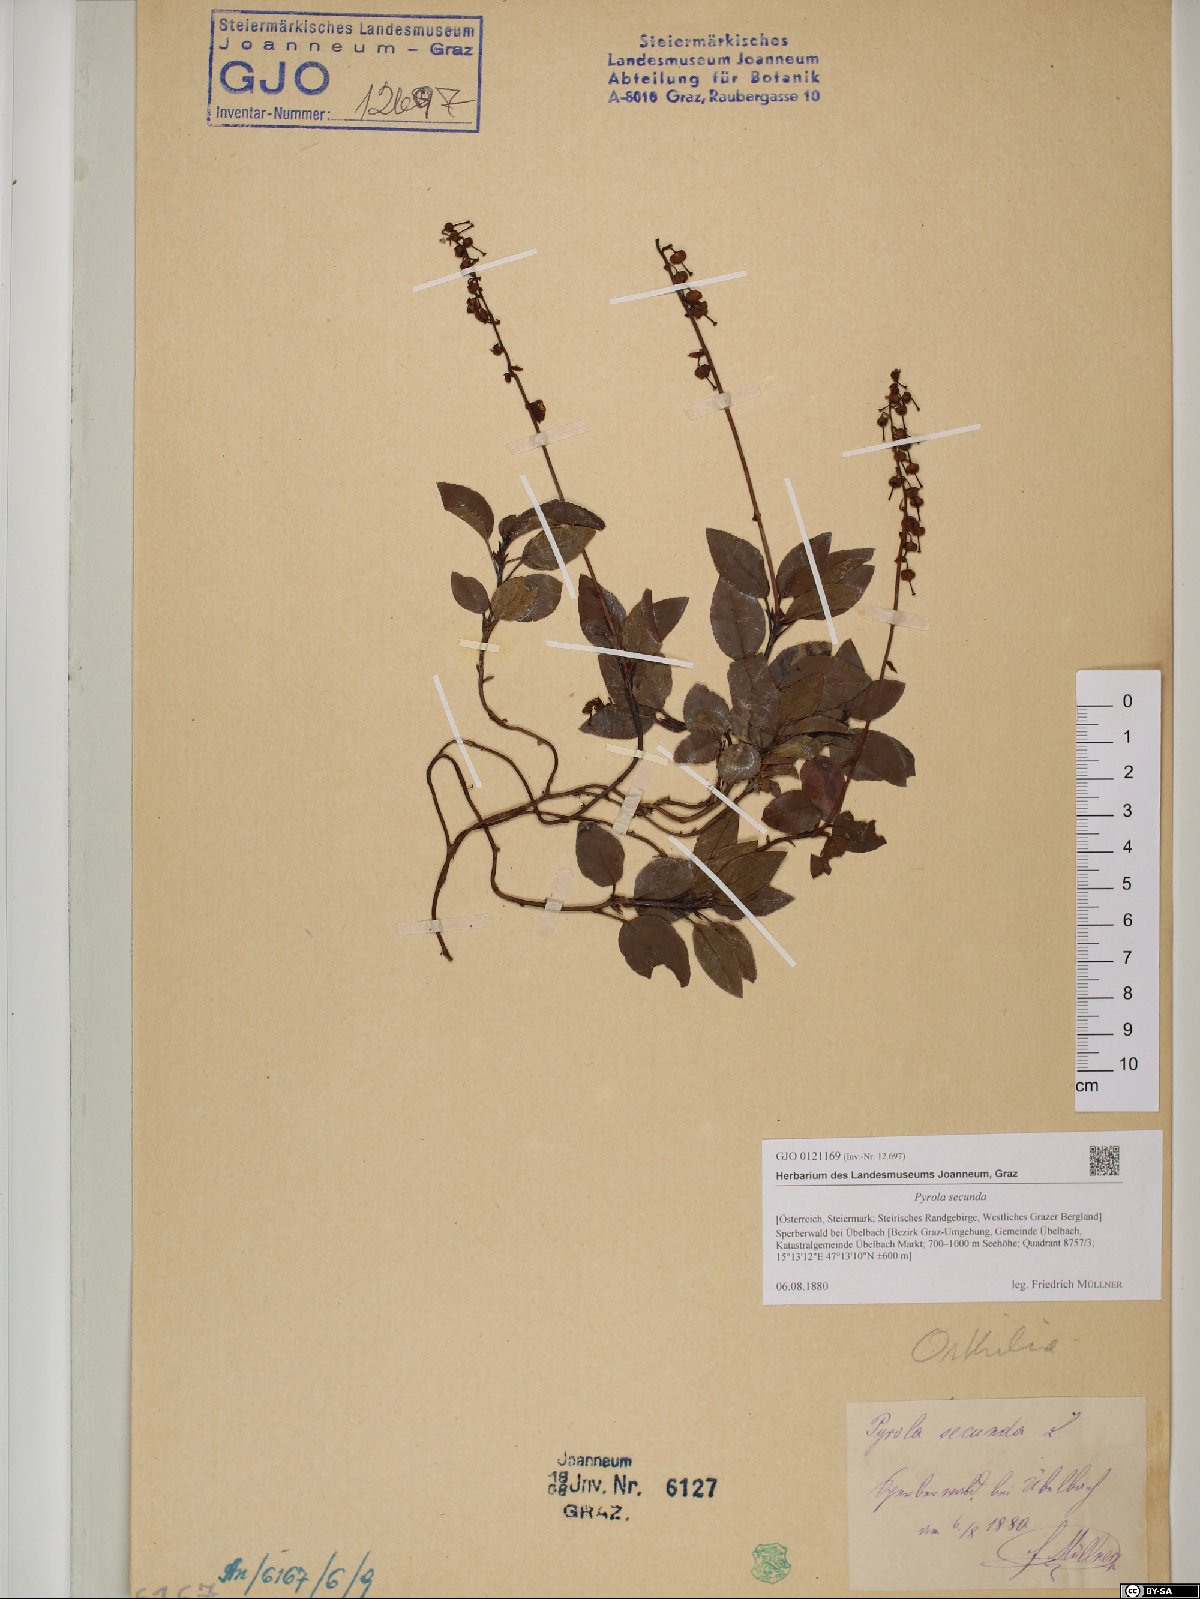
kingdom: Plantae
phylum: Tracheophyta
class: Magnoliopsida
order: Ericales
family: Ericaceae
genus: Orthilia
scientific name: Orthilia secunda
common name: One-sided orthilia
